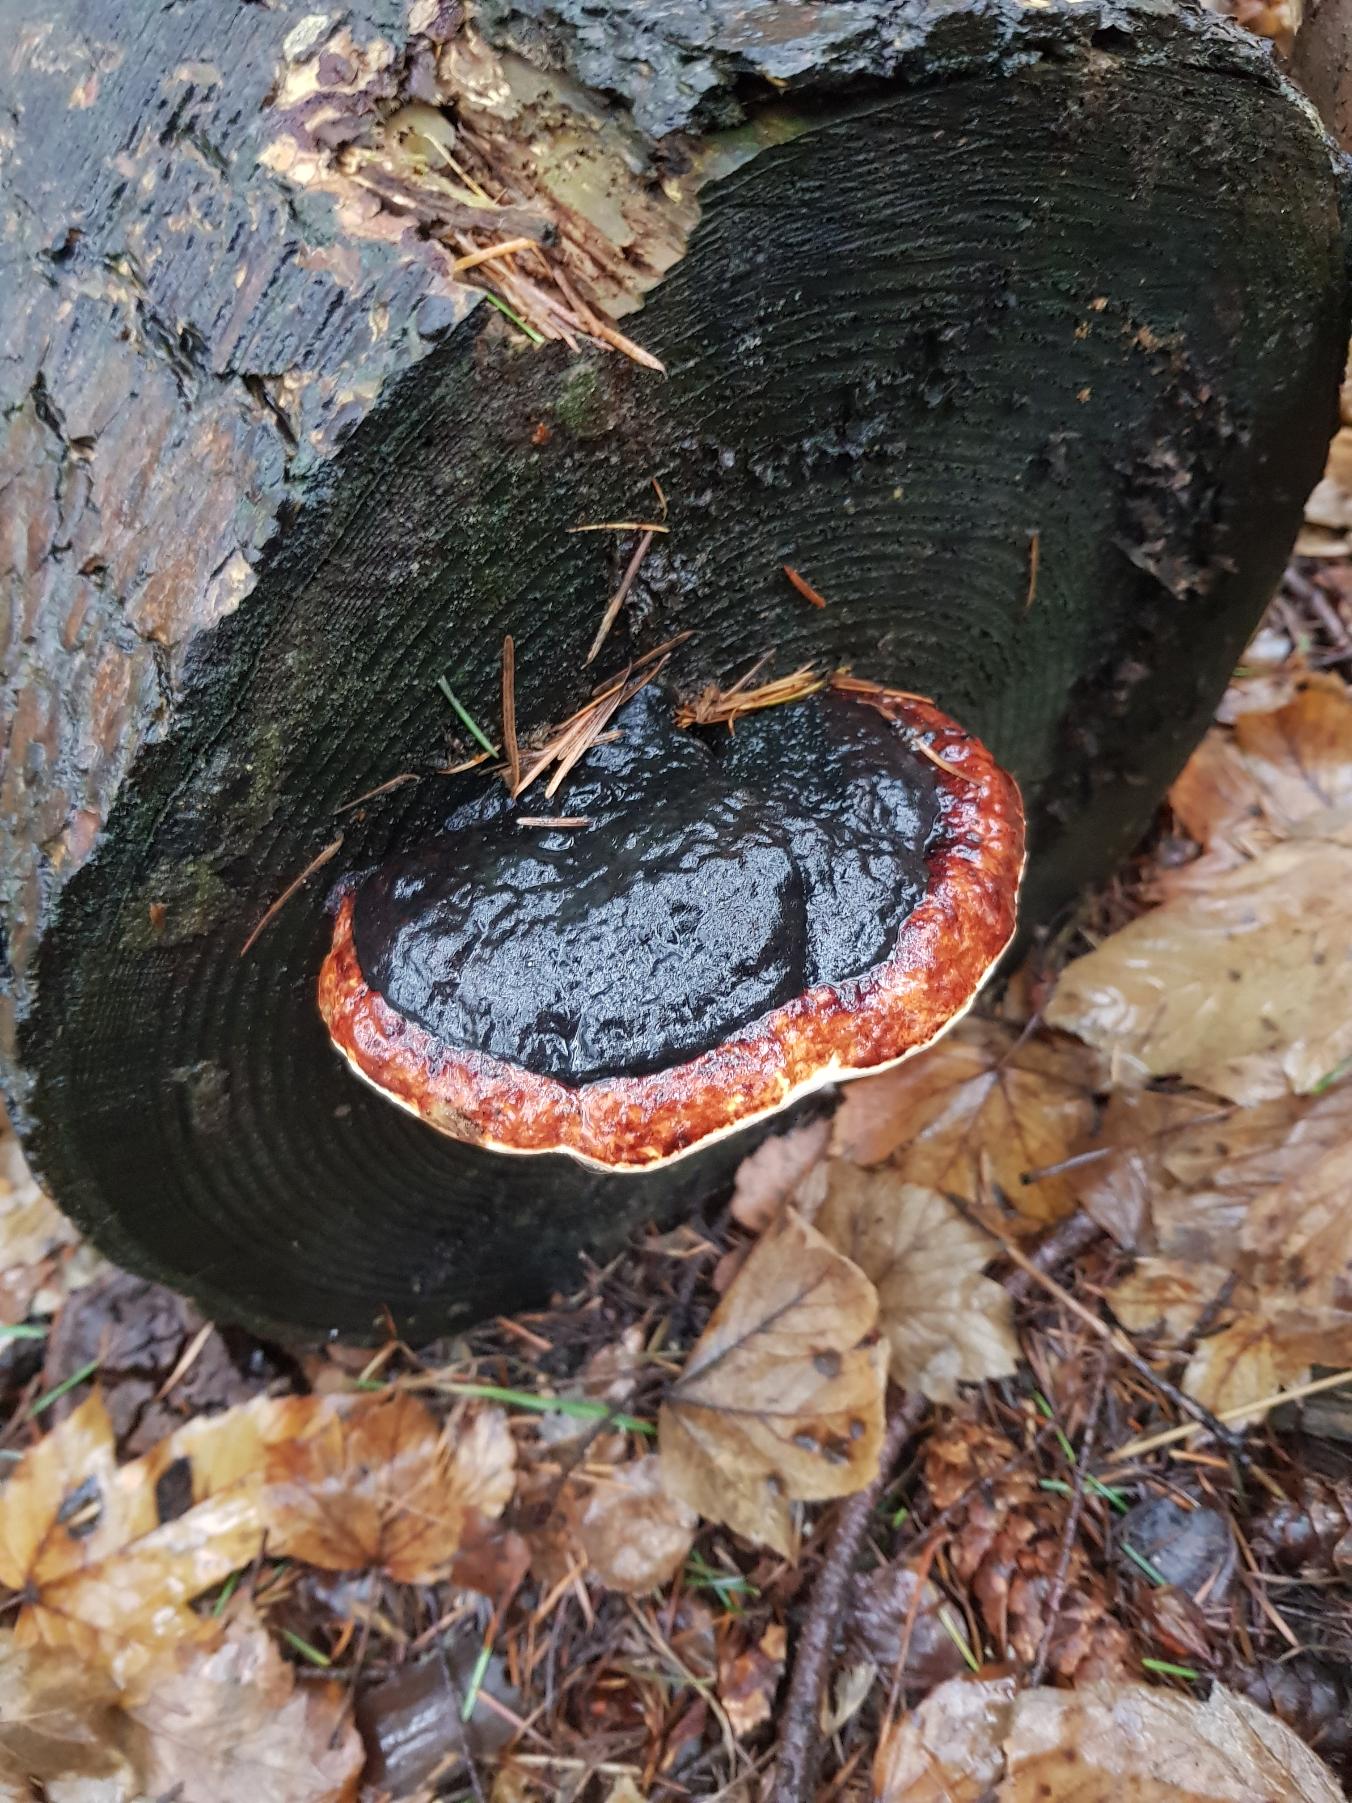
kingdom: Fungi
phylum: Basidiomycota
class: Agaricomycetes
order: Polyporales
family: Fomitopsidaceae
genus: Fomitopsis
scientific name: Fomitopsis pinicola
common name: Randbæltet hovporesvamp
